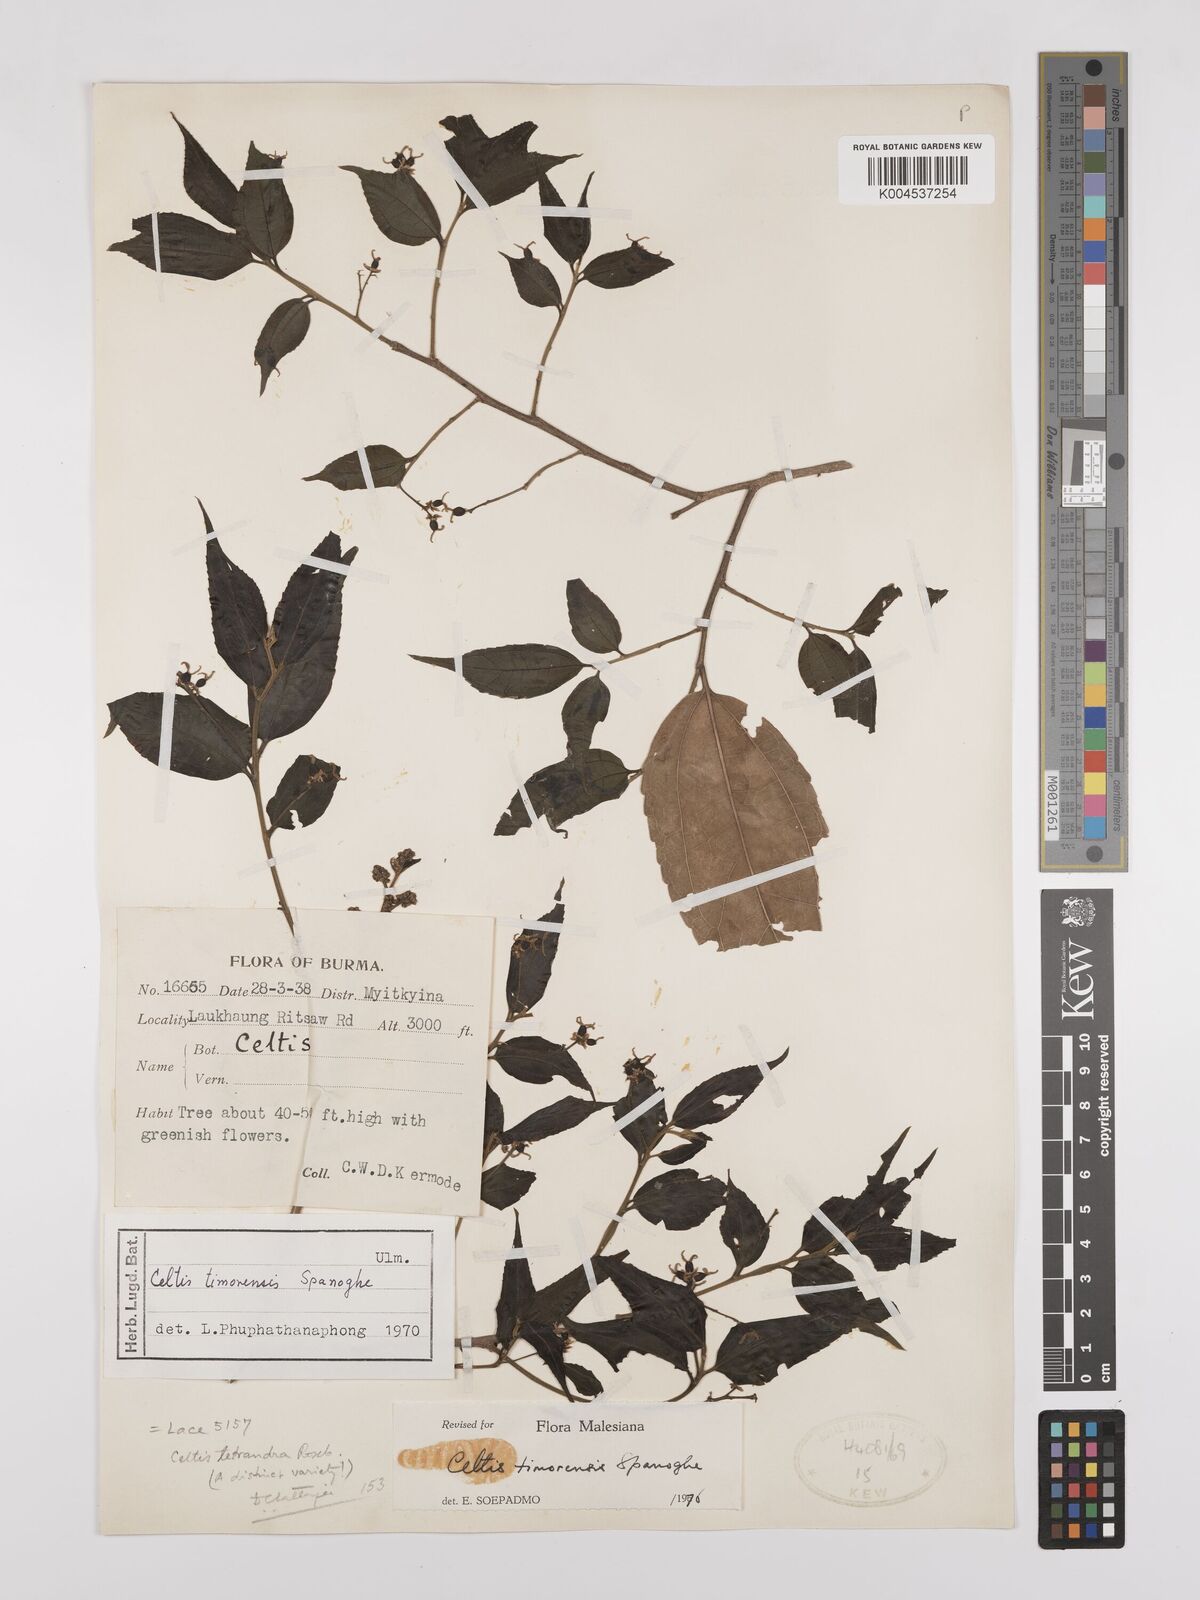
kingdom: Plantae
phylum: Tracheophyta
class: Magnoliopsida
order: Rosales
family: Cannabaceae
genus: Celtis
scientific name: Celtis
